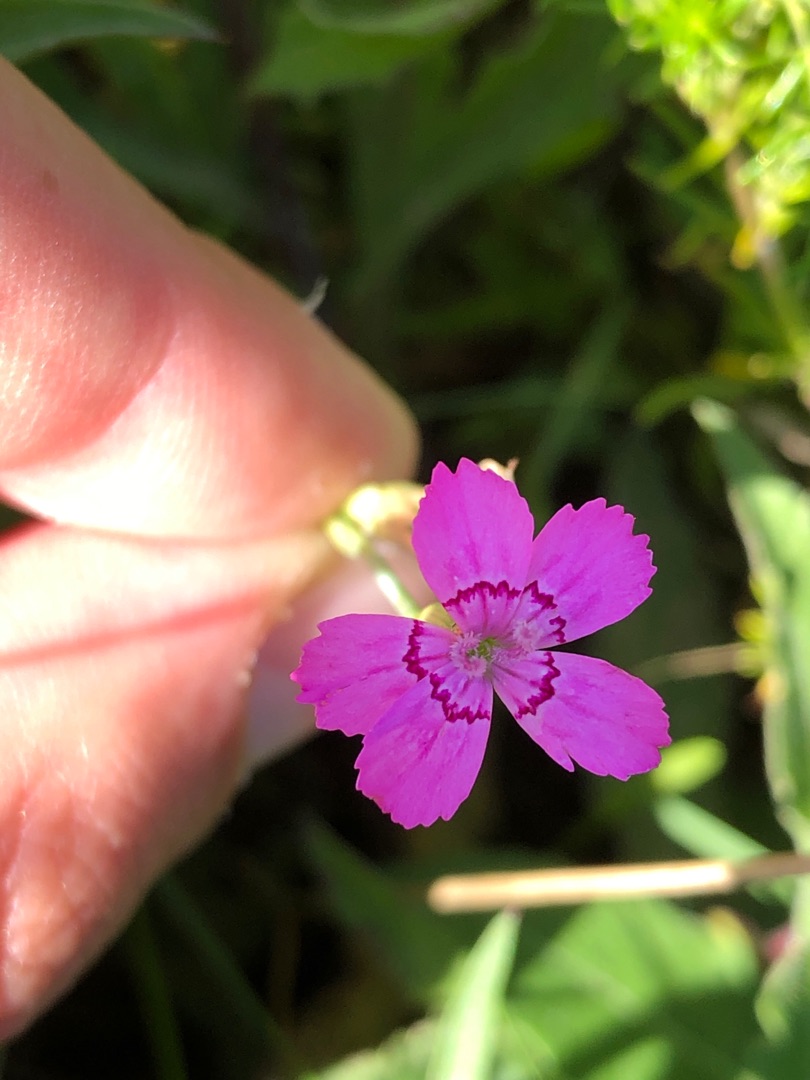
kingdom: Plantae
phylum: Tracheophyta
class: Magnoliopsida
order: Caryophyllales
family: Caryophyllaceae
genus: Dianthus
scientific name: Dianthus deltoides
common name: Bakke-nellike
